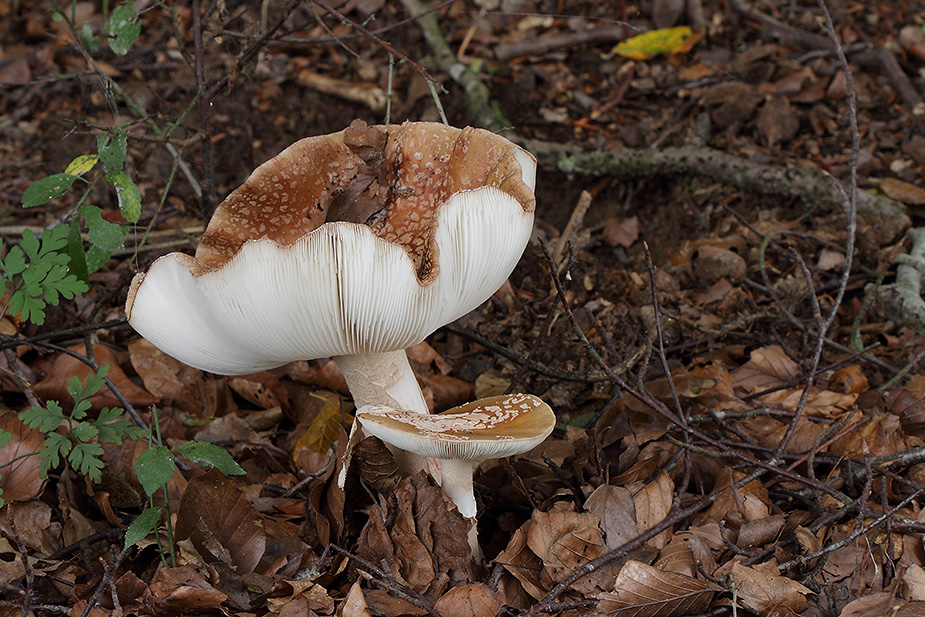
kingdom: Fungi
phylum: Basidiomycota
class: Agaricomycetes
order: Agaricales
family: Amanitaceae
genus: Amanita
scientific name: Amanita rubescens
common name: rødmende fluesvamp
